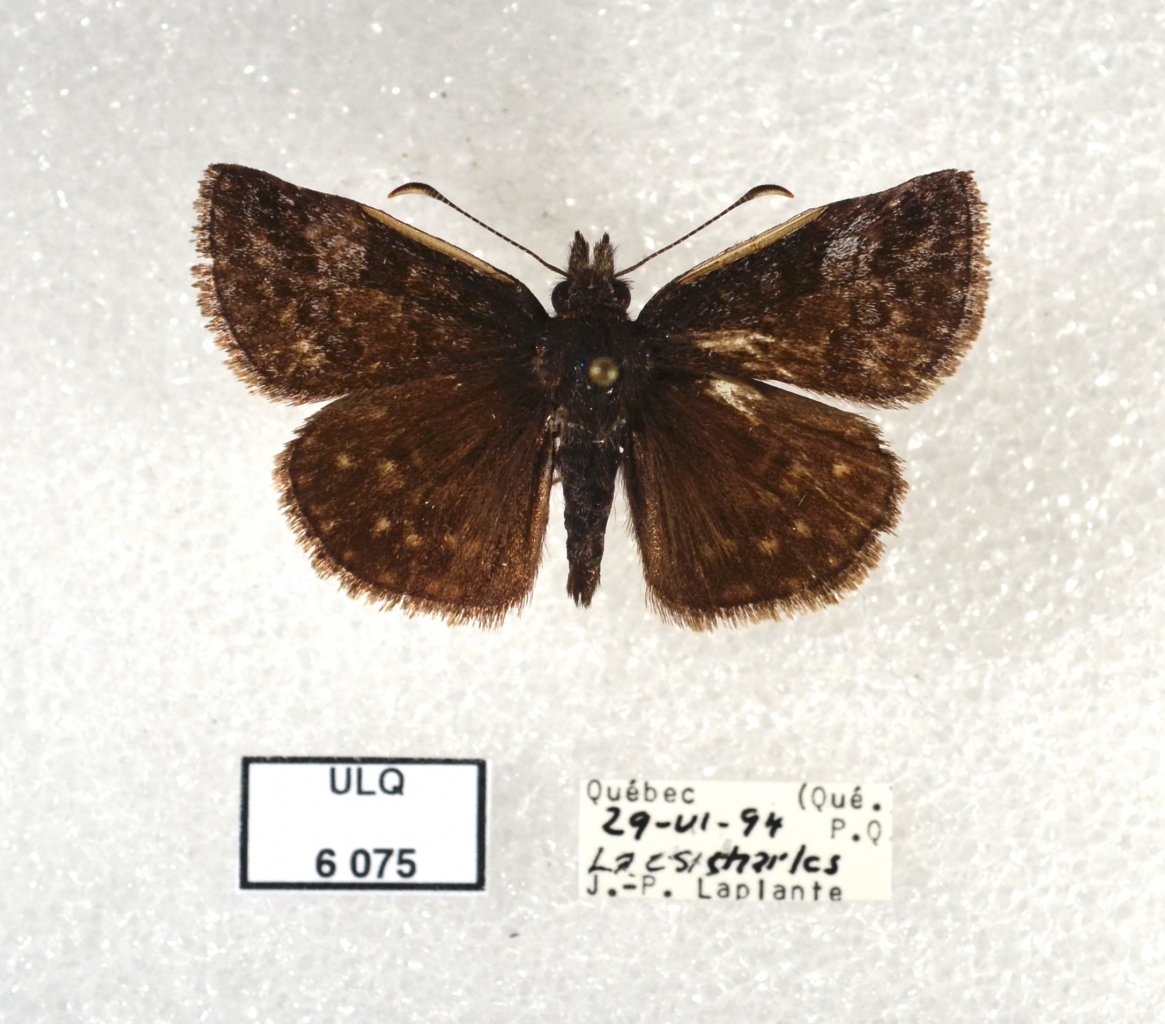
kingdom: Animalia
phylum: Arthropoda
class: Insecta
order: Lepidoptera
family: Hesperiidae
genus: Erynnis
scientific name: Erynnis icelus
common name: Dreamy Duskywing
